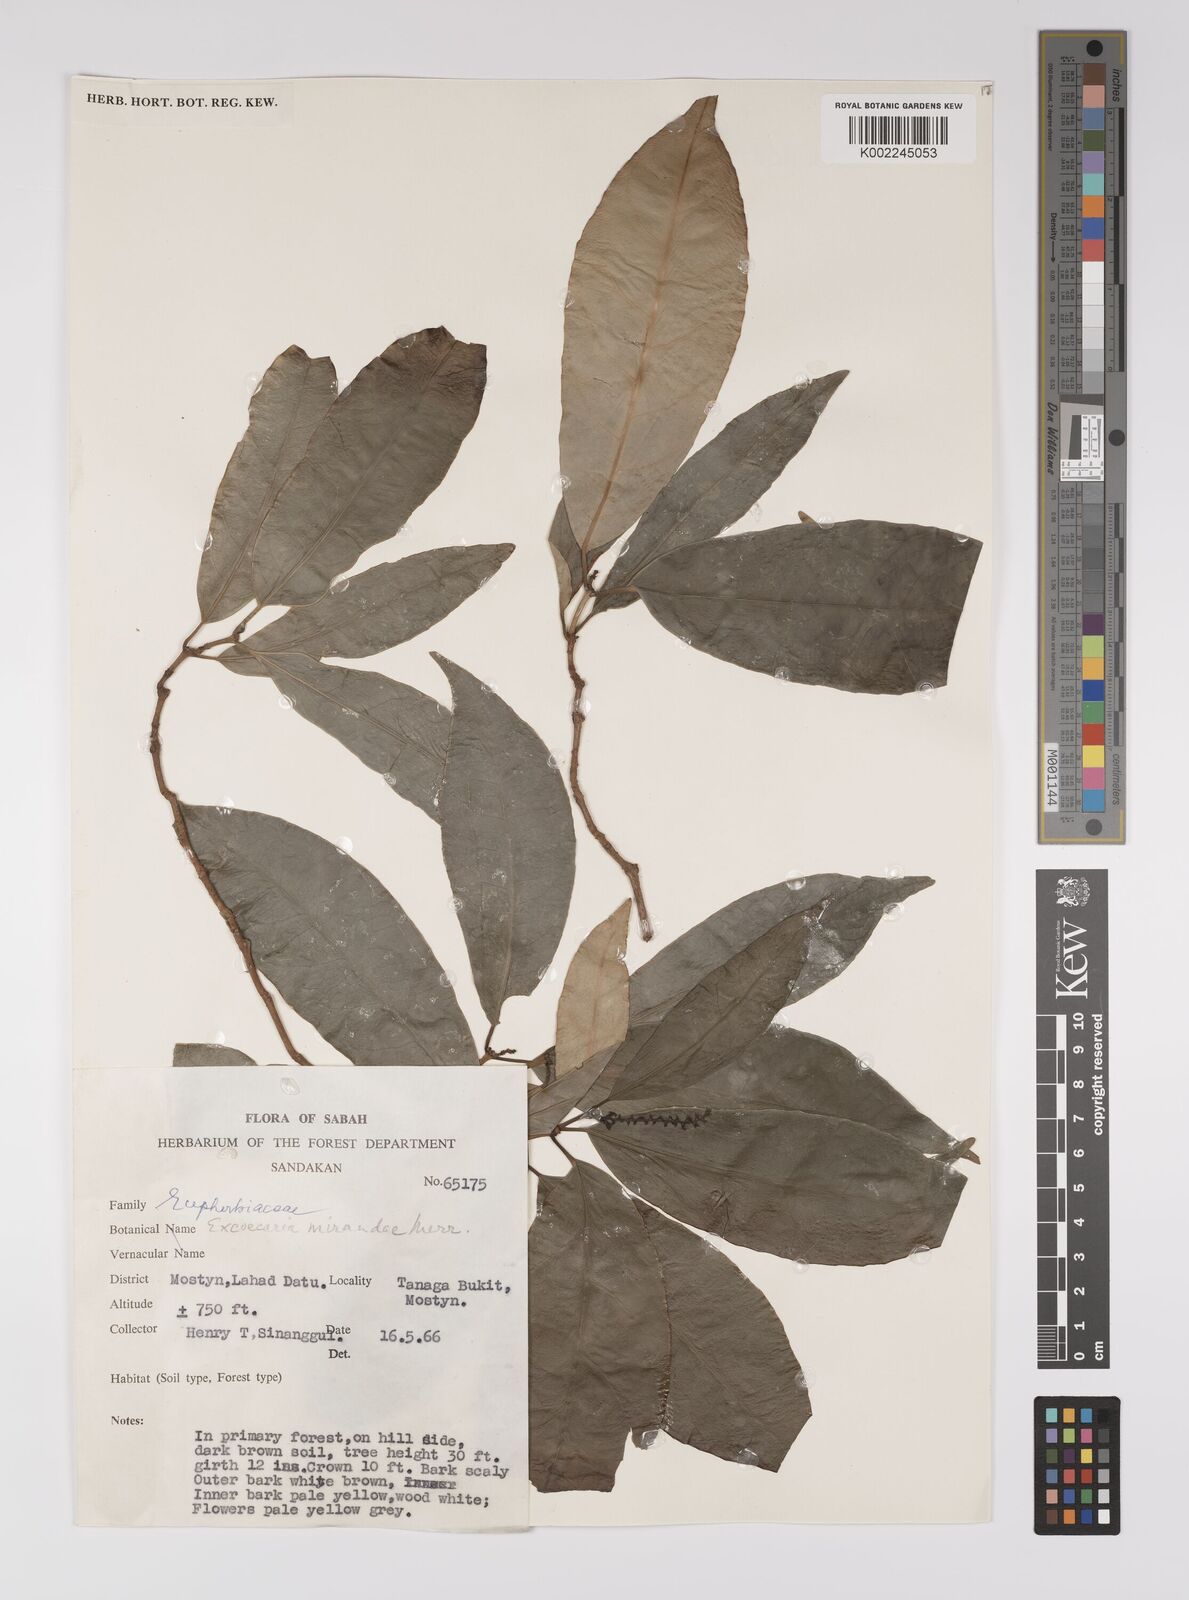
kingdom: Plantae
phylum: Tracheophyta
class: Magnoliopsida
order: Malpighiales
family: Euphorbiaceae
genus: Excoecaria
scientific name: Excoecaria borneensis
